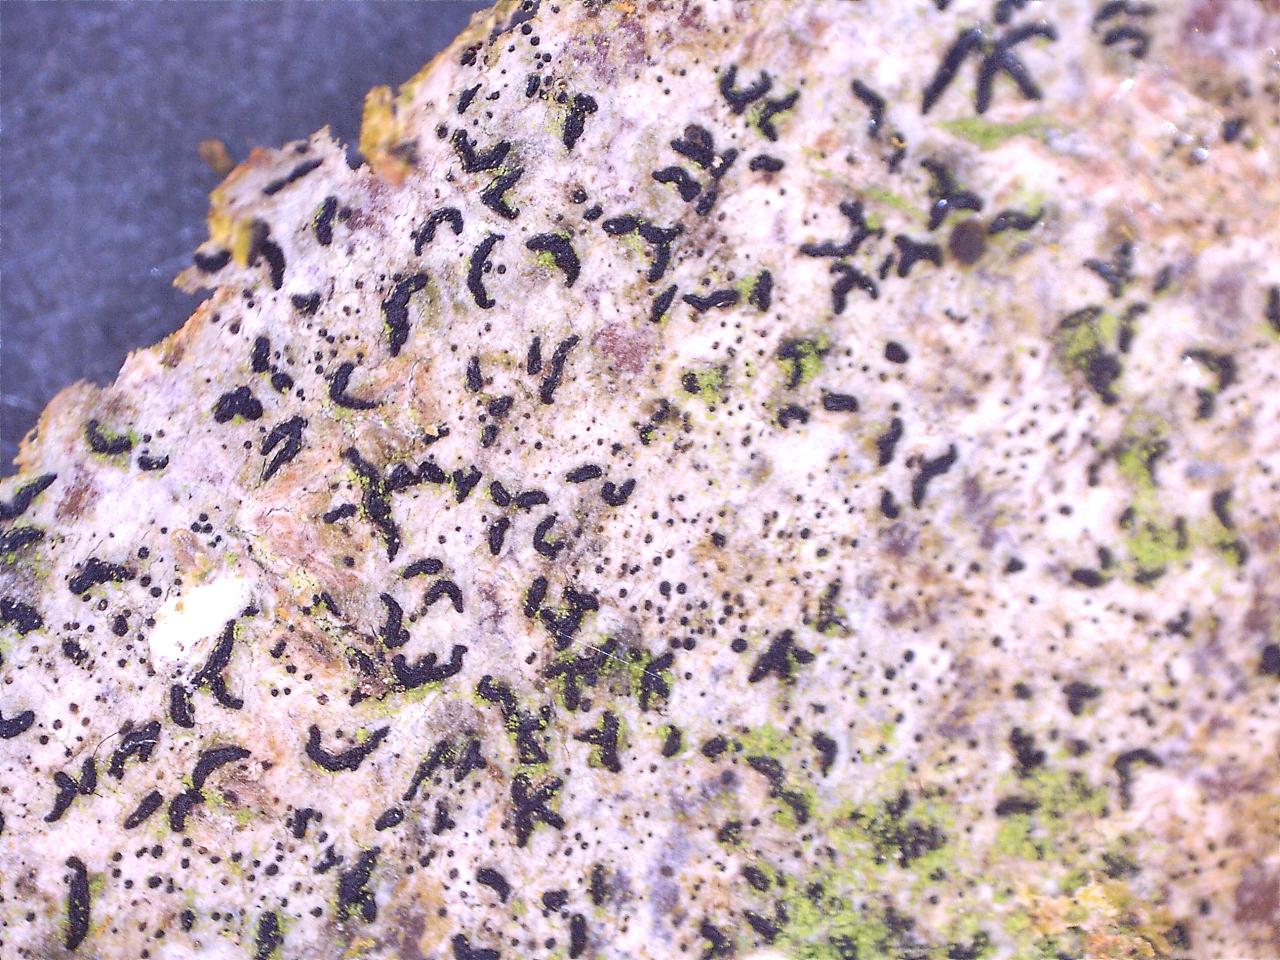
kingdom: Fungi
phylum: Ascomycota
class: Arthoniomycetes
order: Arthoniales
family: Opegraphaceae
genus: Opegrapha
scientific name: Opegrapha niveoatra
